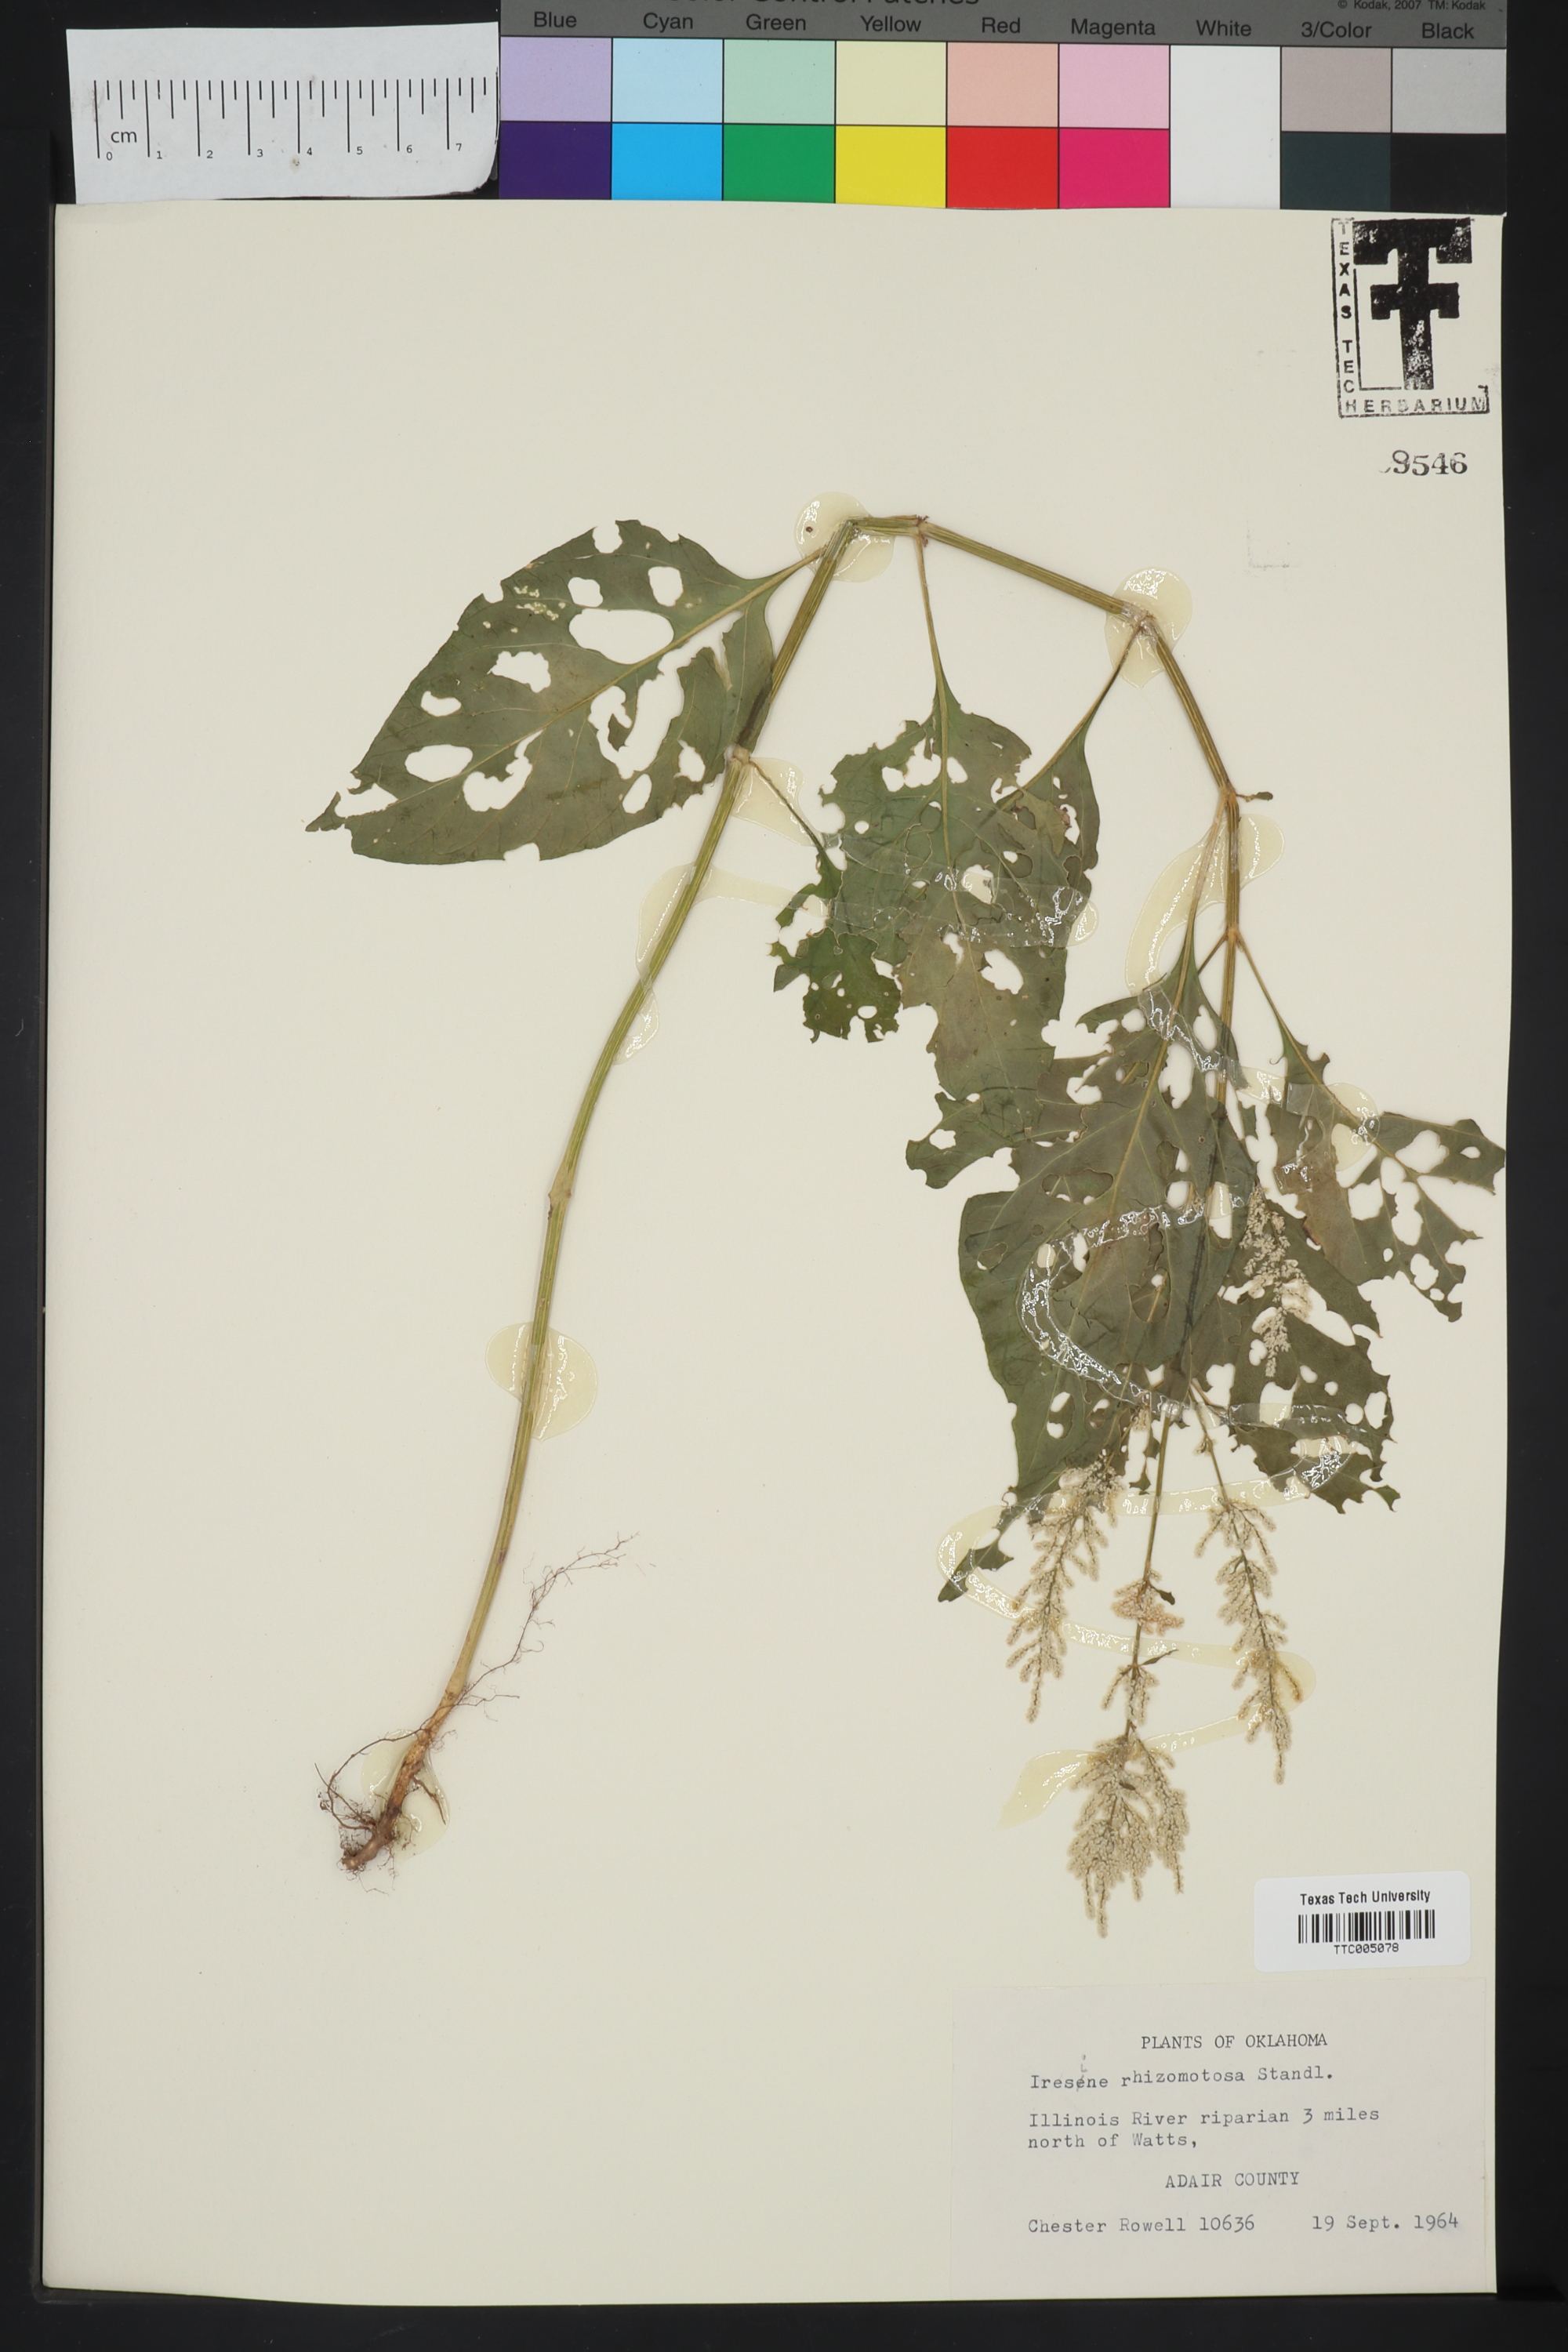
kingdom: Plantae
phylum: Tracheophyta
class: Magnoliopsida
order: Caryophyllales
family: Amaranthaceae
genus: Iresine
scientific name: Iresine rhizomatosa
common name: Juda's-bush
